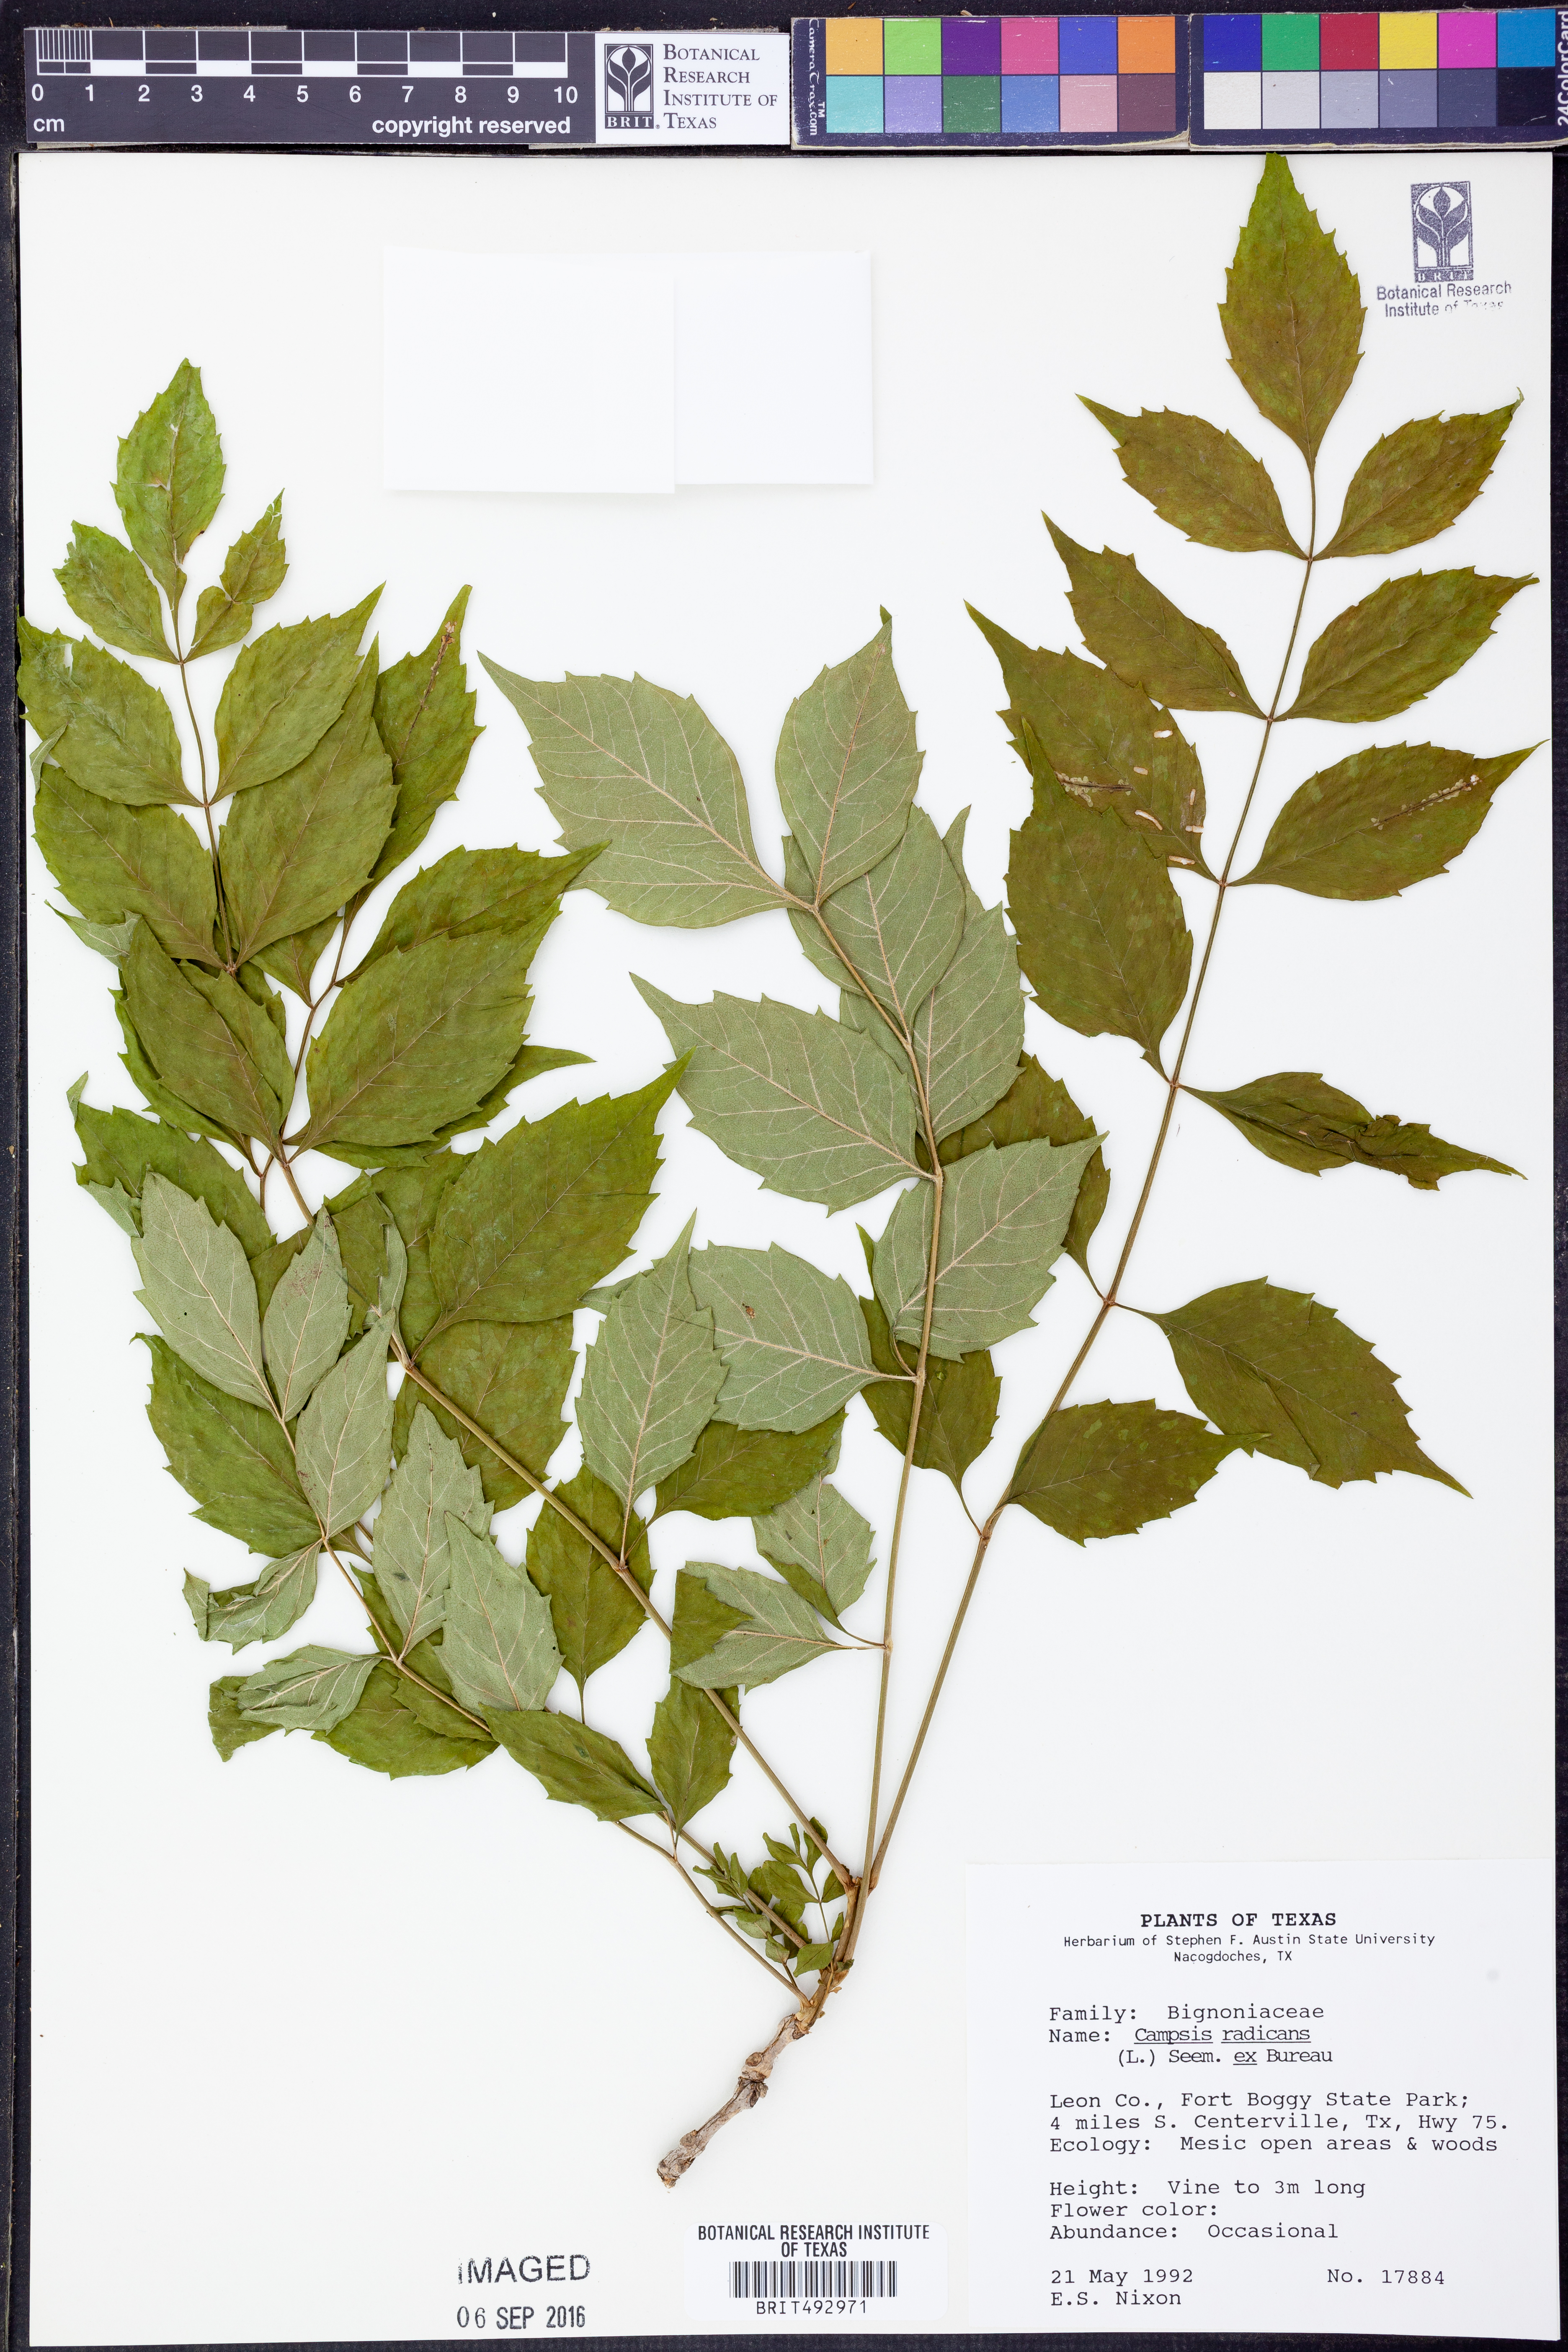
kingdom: Plantae
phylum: Tracheophyta
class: Magnoliopsida
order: Lamiales
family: Bignoniaceae
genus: Campsis
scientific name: Campsis radicans
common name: Trumpet-creeper
